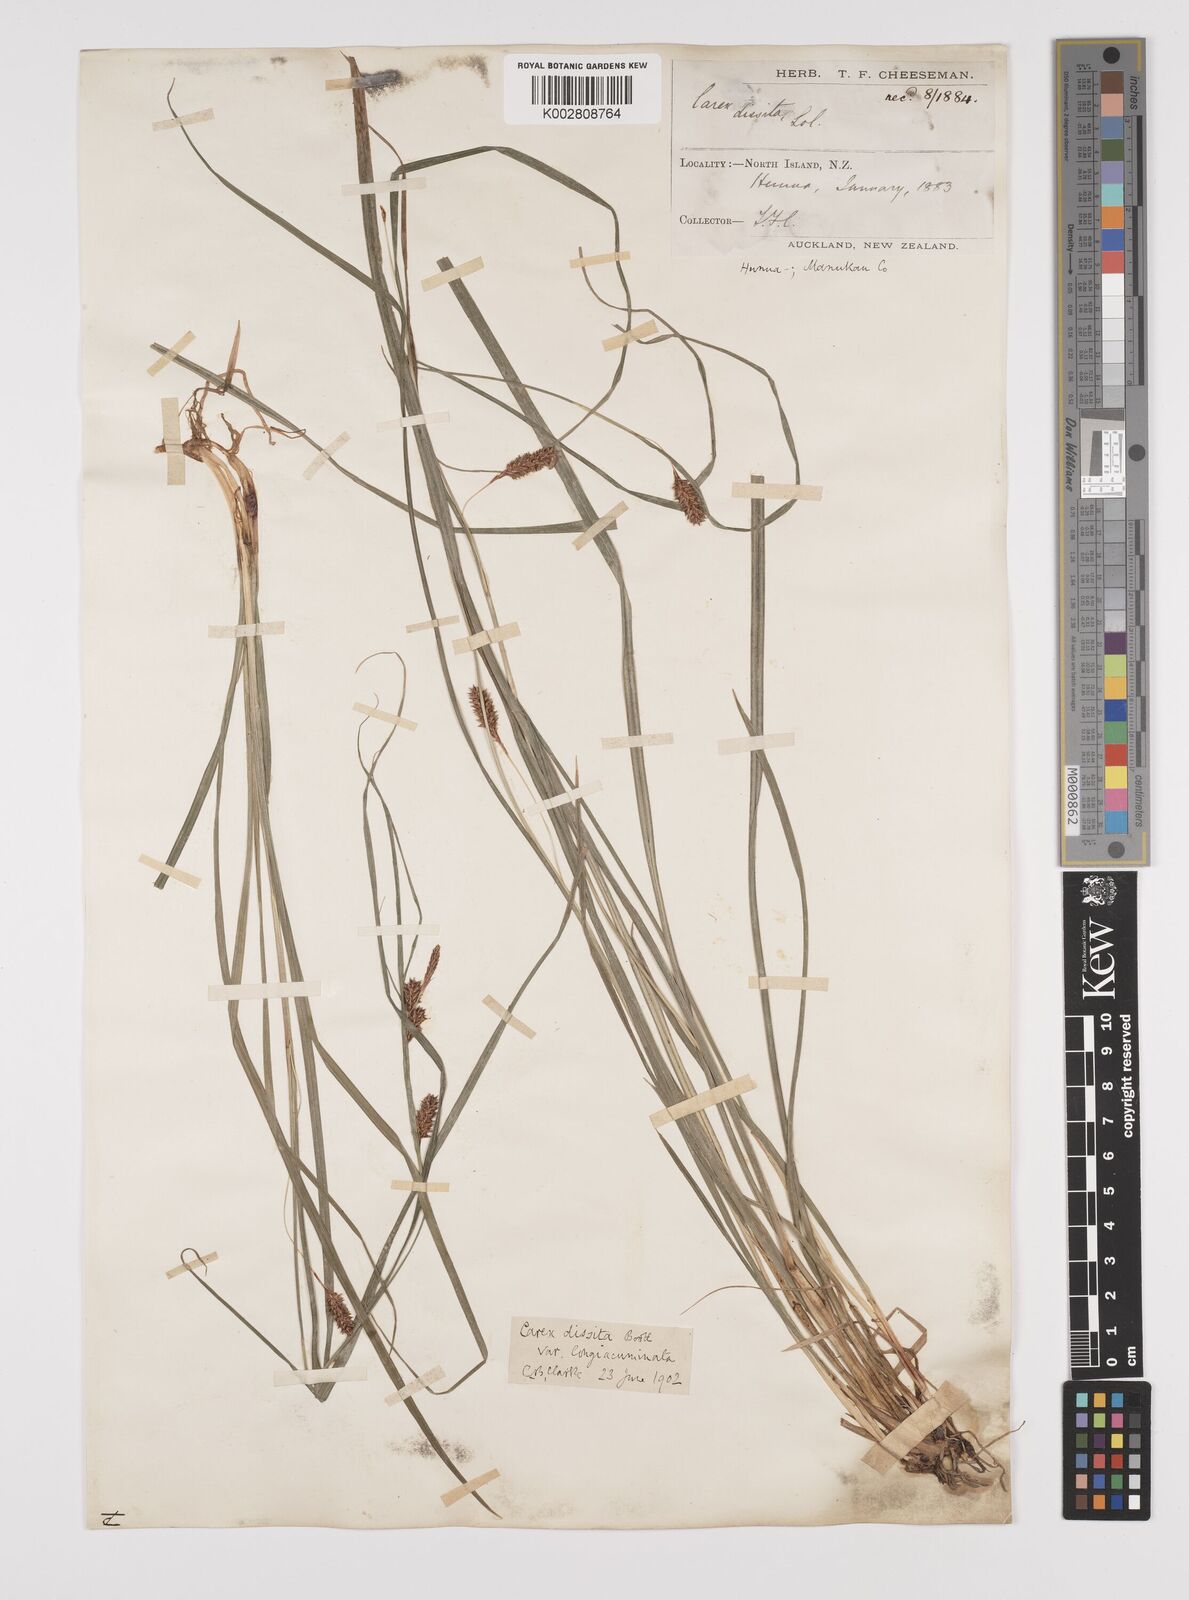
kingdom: Plantae
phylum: Tracheophyta
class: Liliopsida
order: Poales
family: Cyperaceae
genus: Carex
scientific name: Carex dissita
